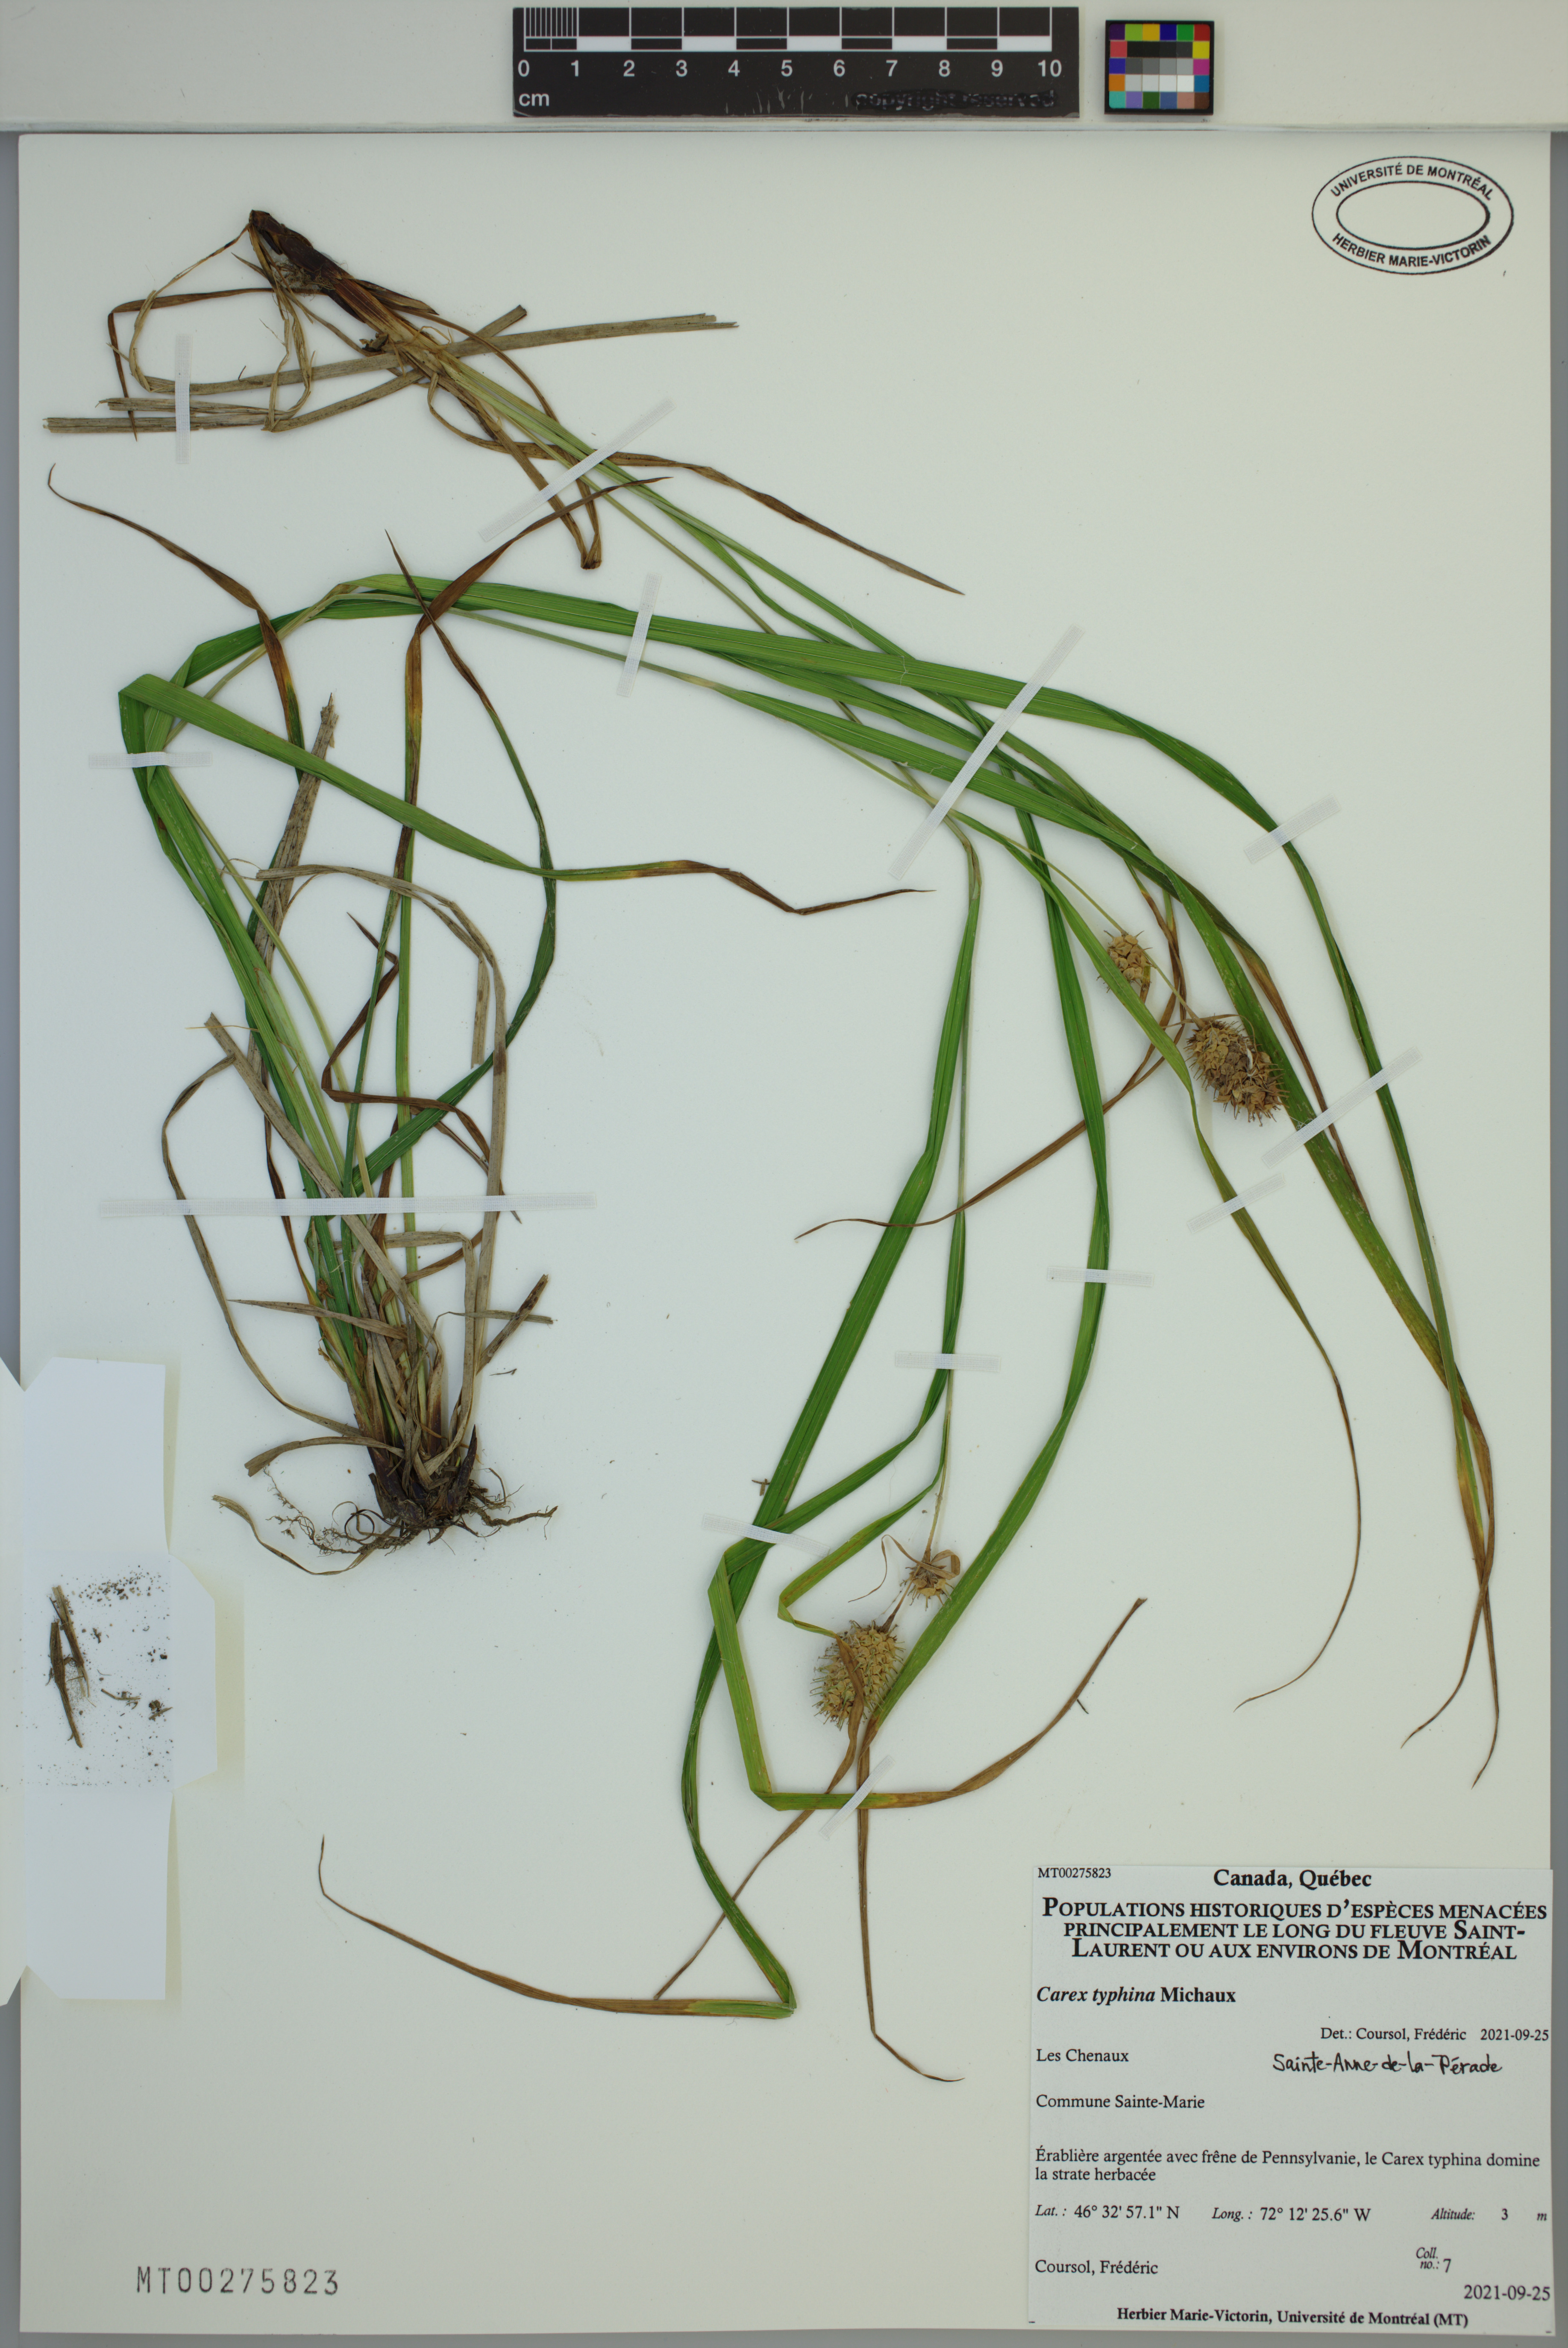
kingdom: Plantae
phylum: Tracheophyta
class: Liliopsida
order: Poales
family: Cyperaceae
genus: Carex
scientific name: Carex typhina
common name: Cattail sedge
